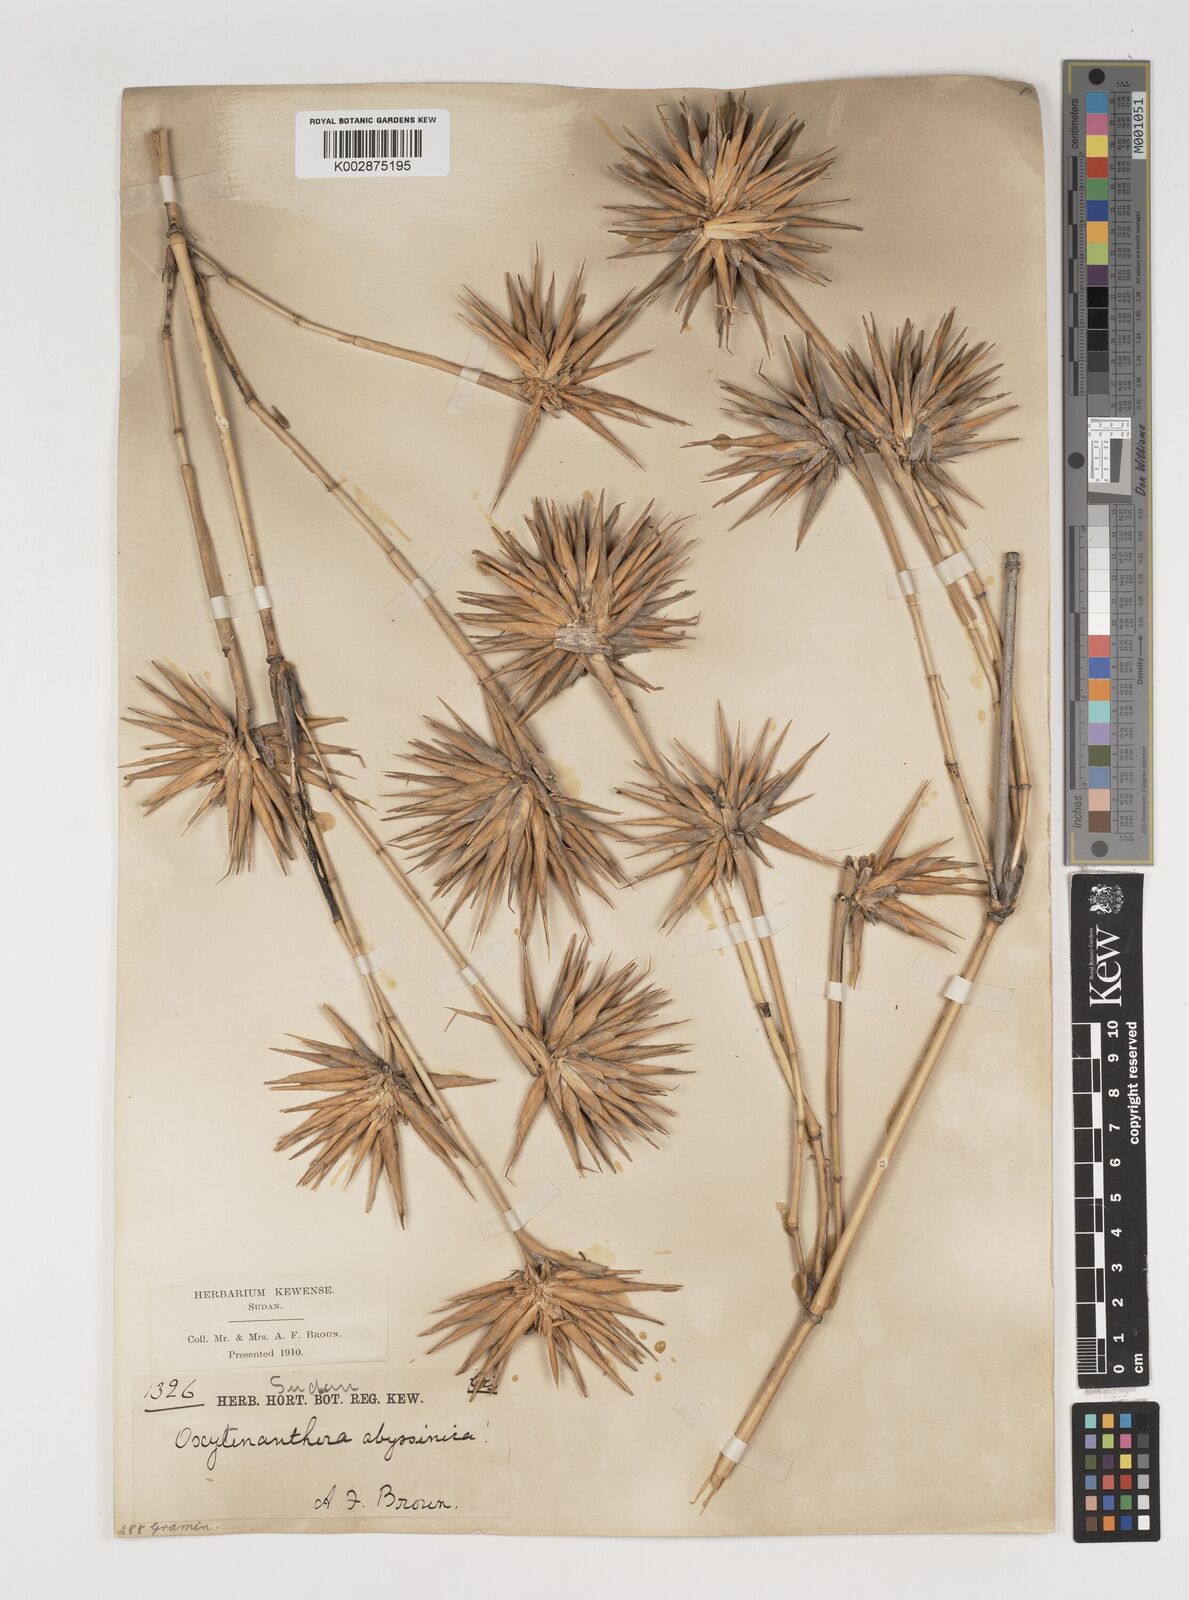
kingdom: Plantae
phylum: Tracheophyta
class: Liliopsida
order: Poales
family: Poaceae
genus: Oxytenanthera
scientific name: Oxytenanthera abyssinica
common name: Wine bamboo
